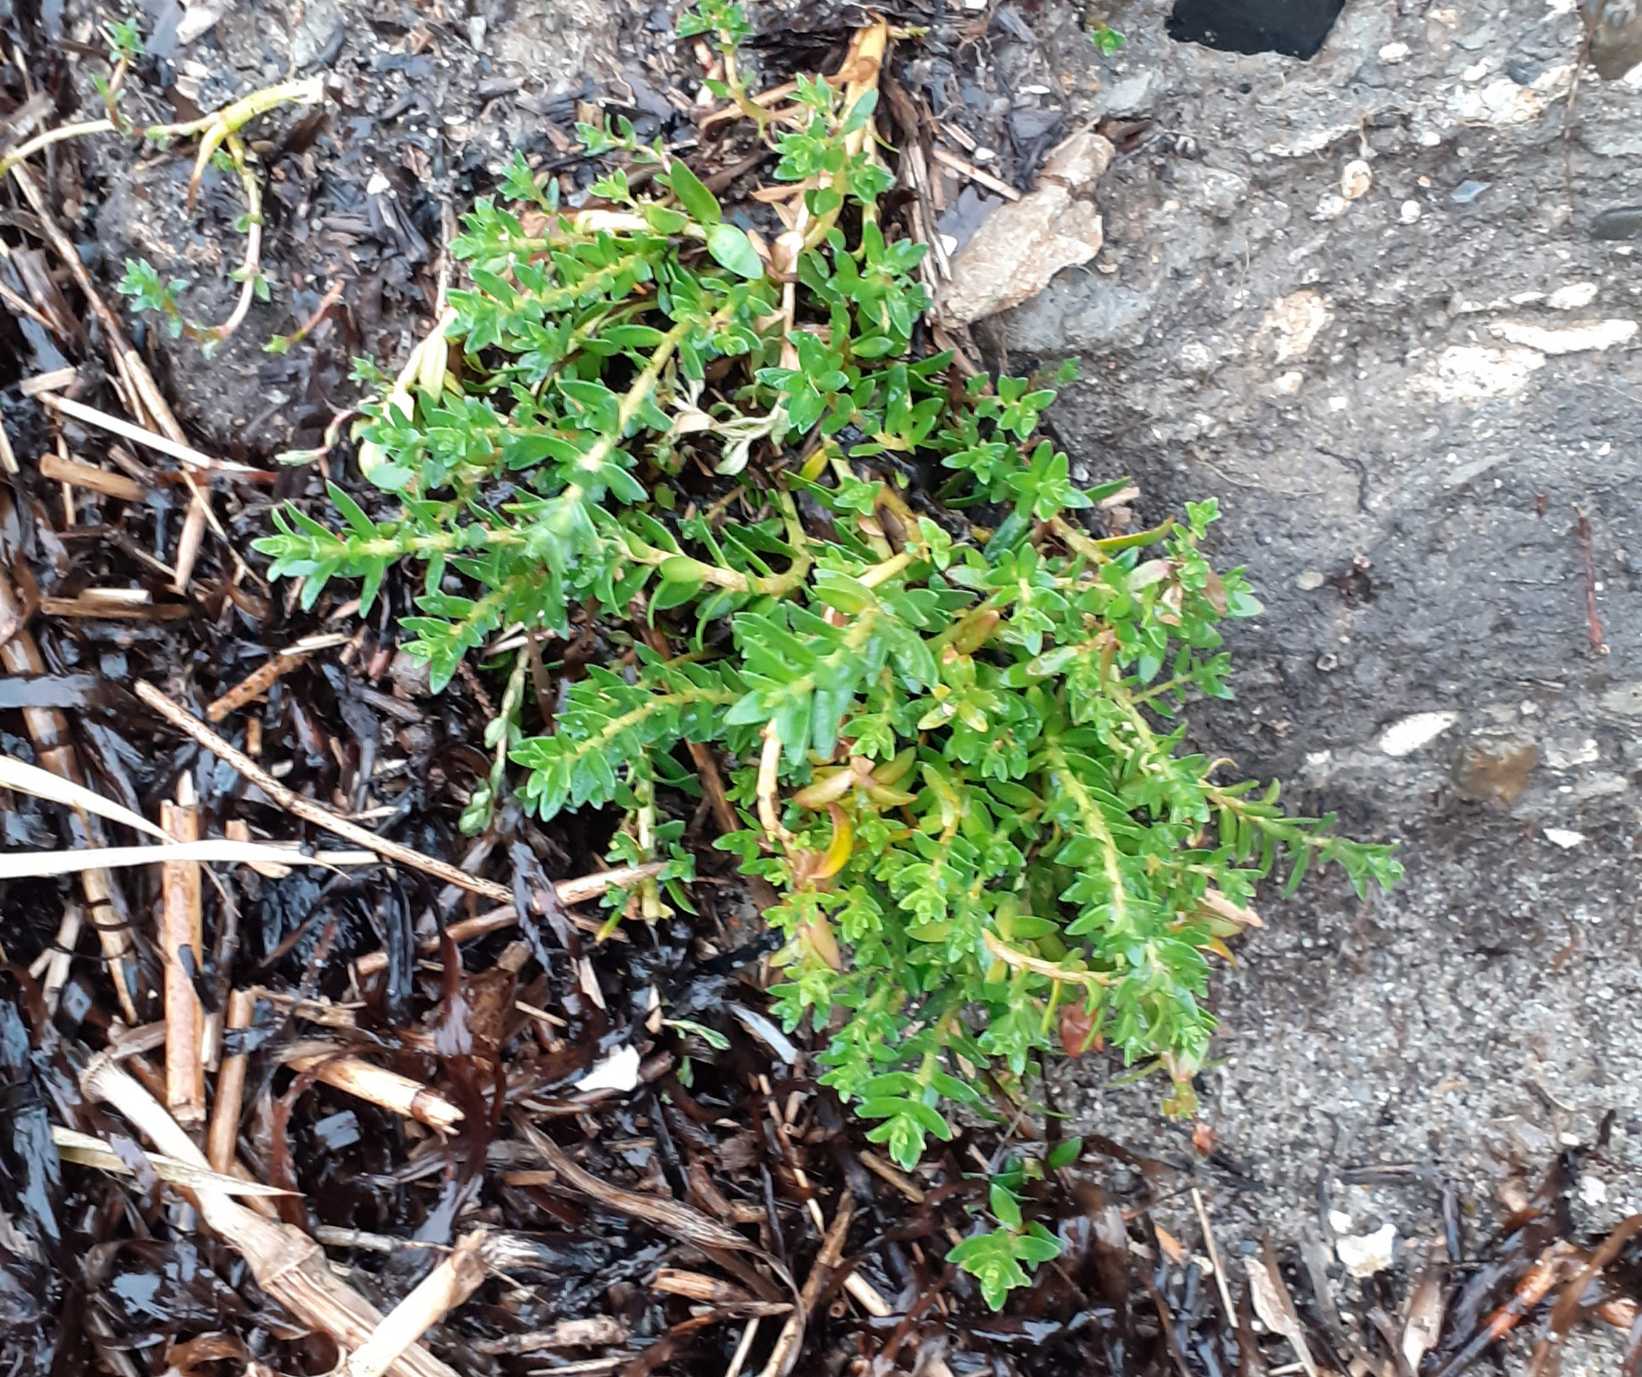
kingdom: Plantae
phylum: Tracheophyta
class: Magnoliopsida
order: Ericales
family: Primulaceae
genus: Lysimachia
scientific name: Lysimachia maritima
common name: Sandkryb
